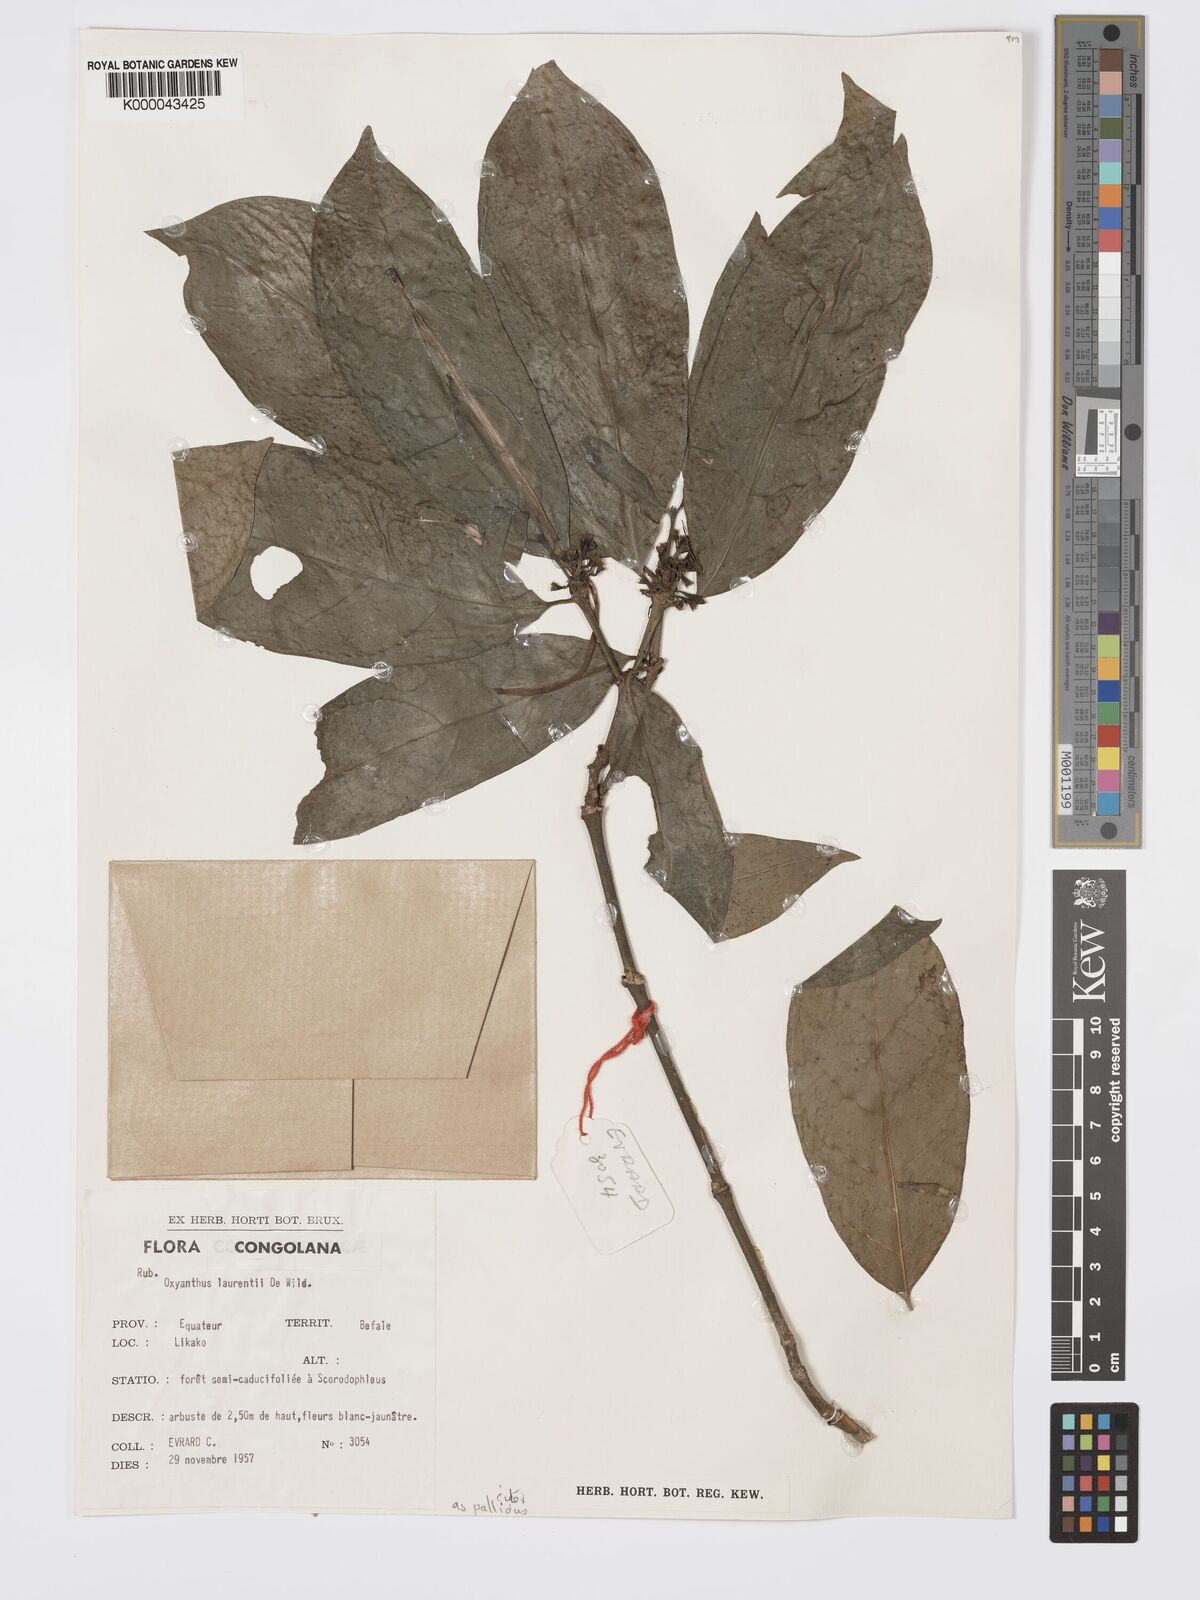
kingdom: Plantae
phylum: Tracheophyta
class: Magnoliopsida
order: Gentianales
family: Rubiaceae
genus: Oxyanthus
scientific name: Oxyanthus pallidus
